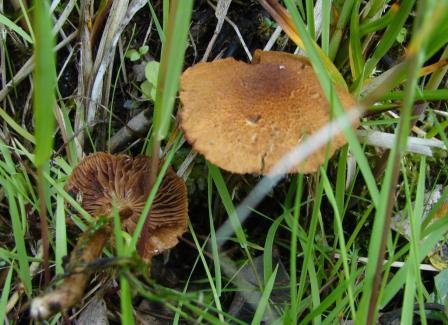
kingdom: Fungi
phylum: Basidiomycota
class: Agaricomycetes
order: Agaricales
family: Inocybaceae
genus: Inocybe
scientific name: Inocybe dulcamara
